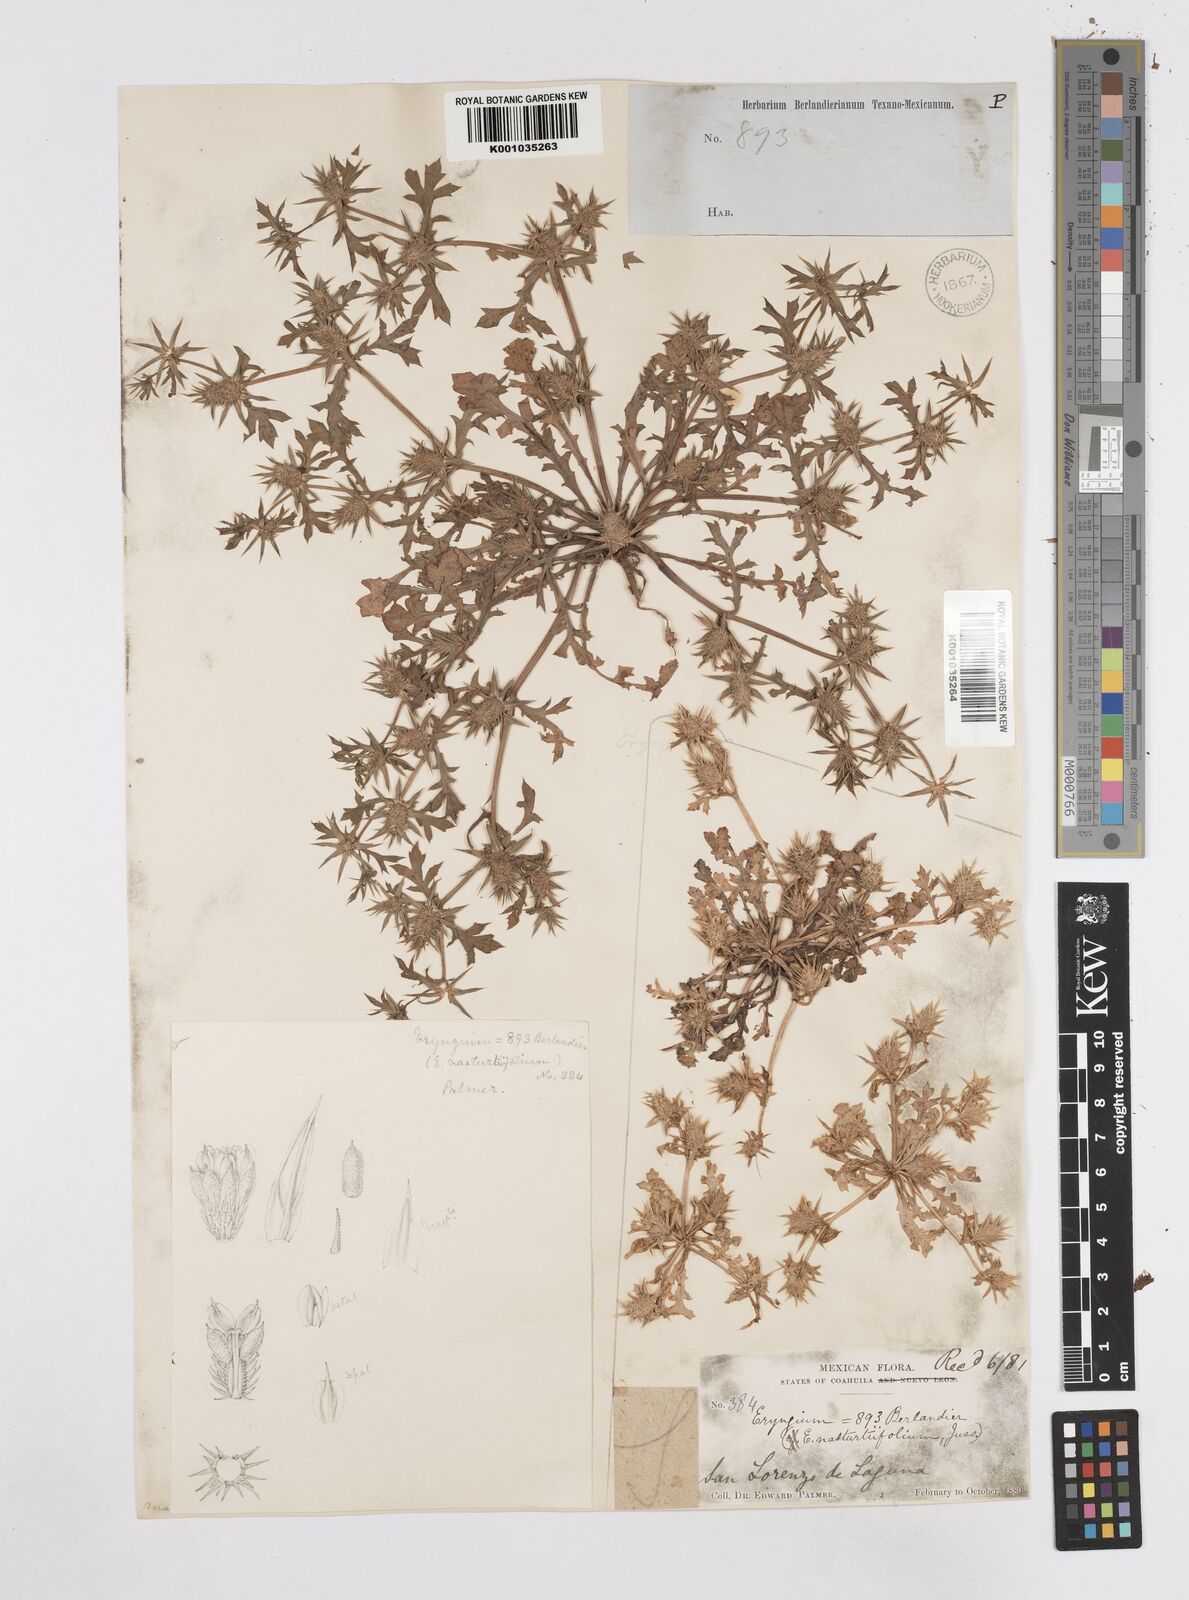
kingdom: Plantae
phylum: Tracheophyta
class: Magnoliopsida
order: Apiales
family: Apiaceae
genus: Eryngium
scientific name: Eryngium nasturtiifolium
